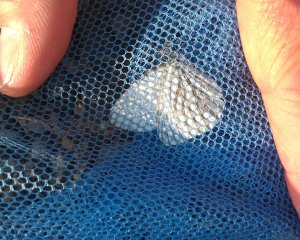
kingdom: Animalia
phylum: Arthropoda
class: Insecta
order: Lepidoptera
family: Pieridae
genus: Pieris
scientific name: Pieris oleracea
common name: Mustard White
